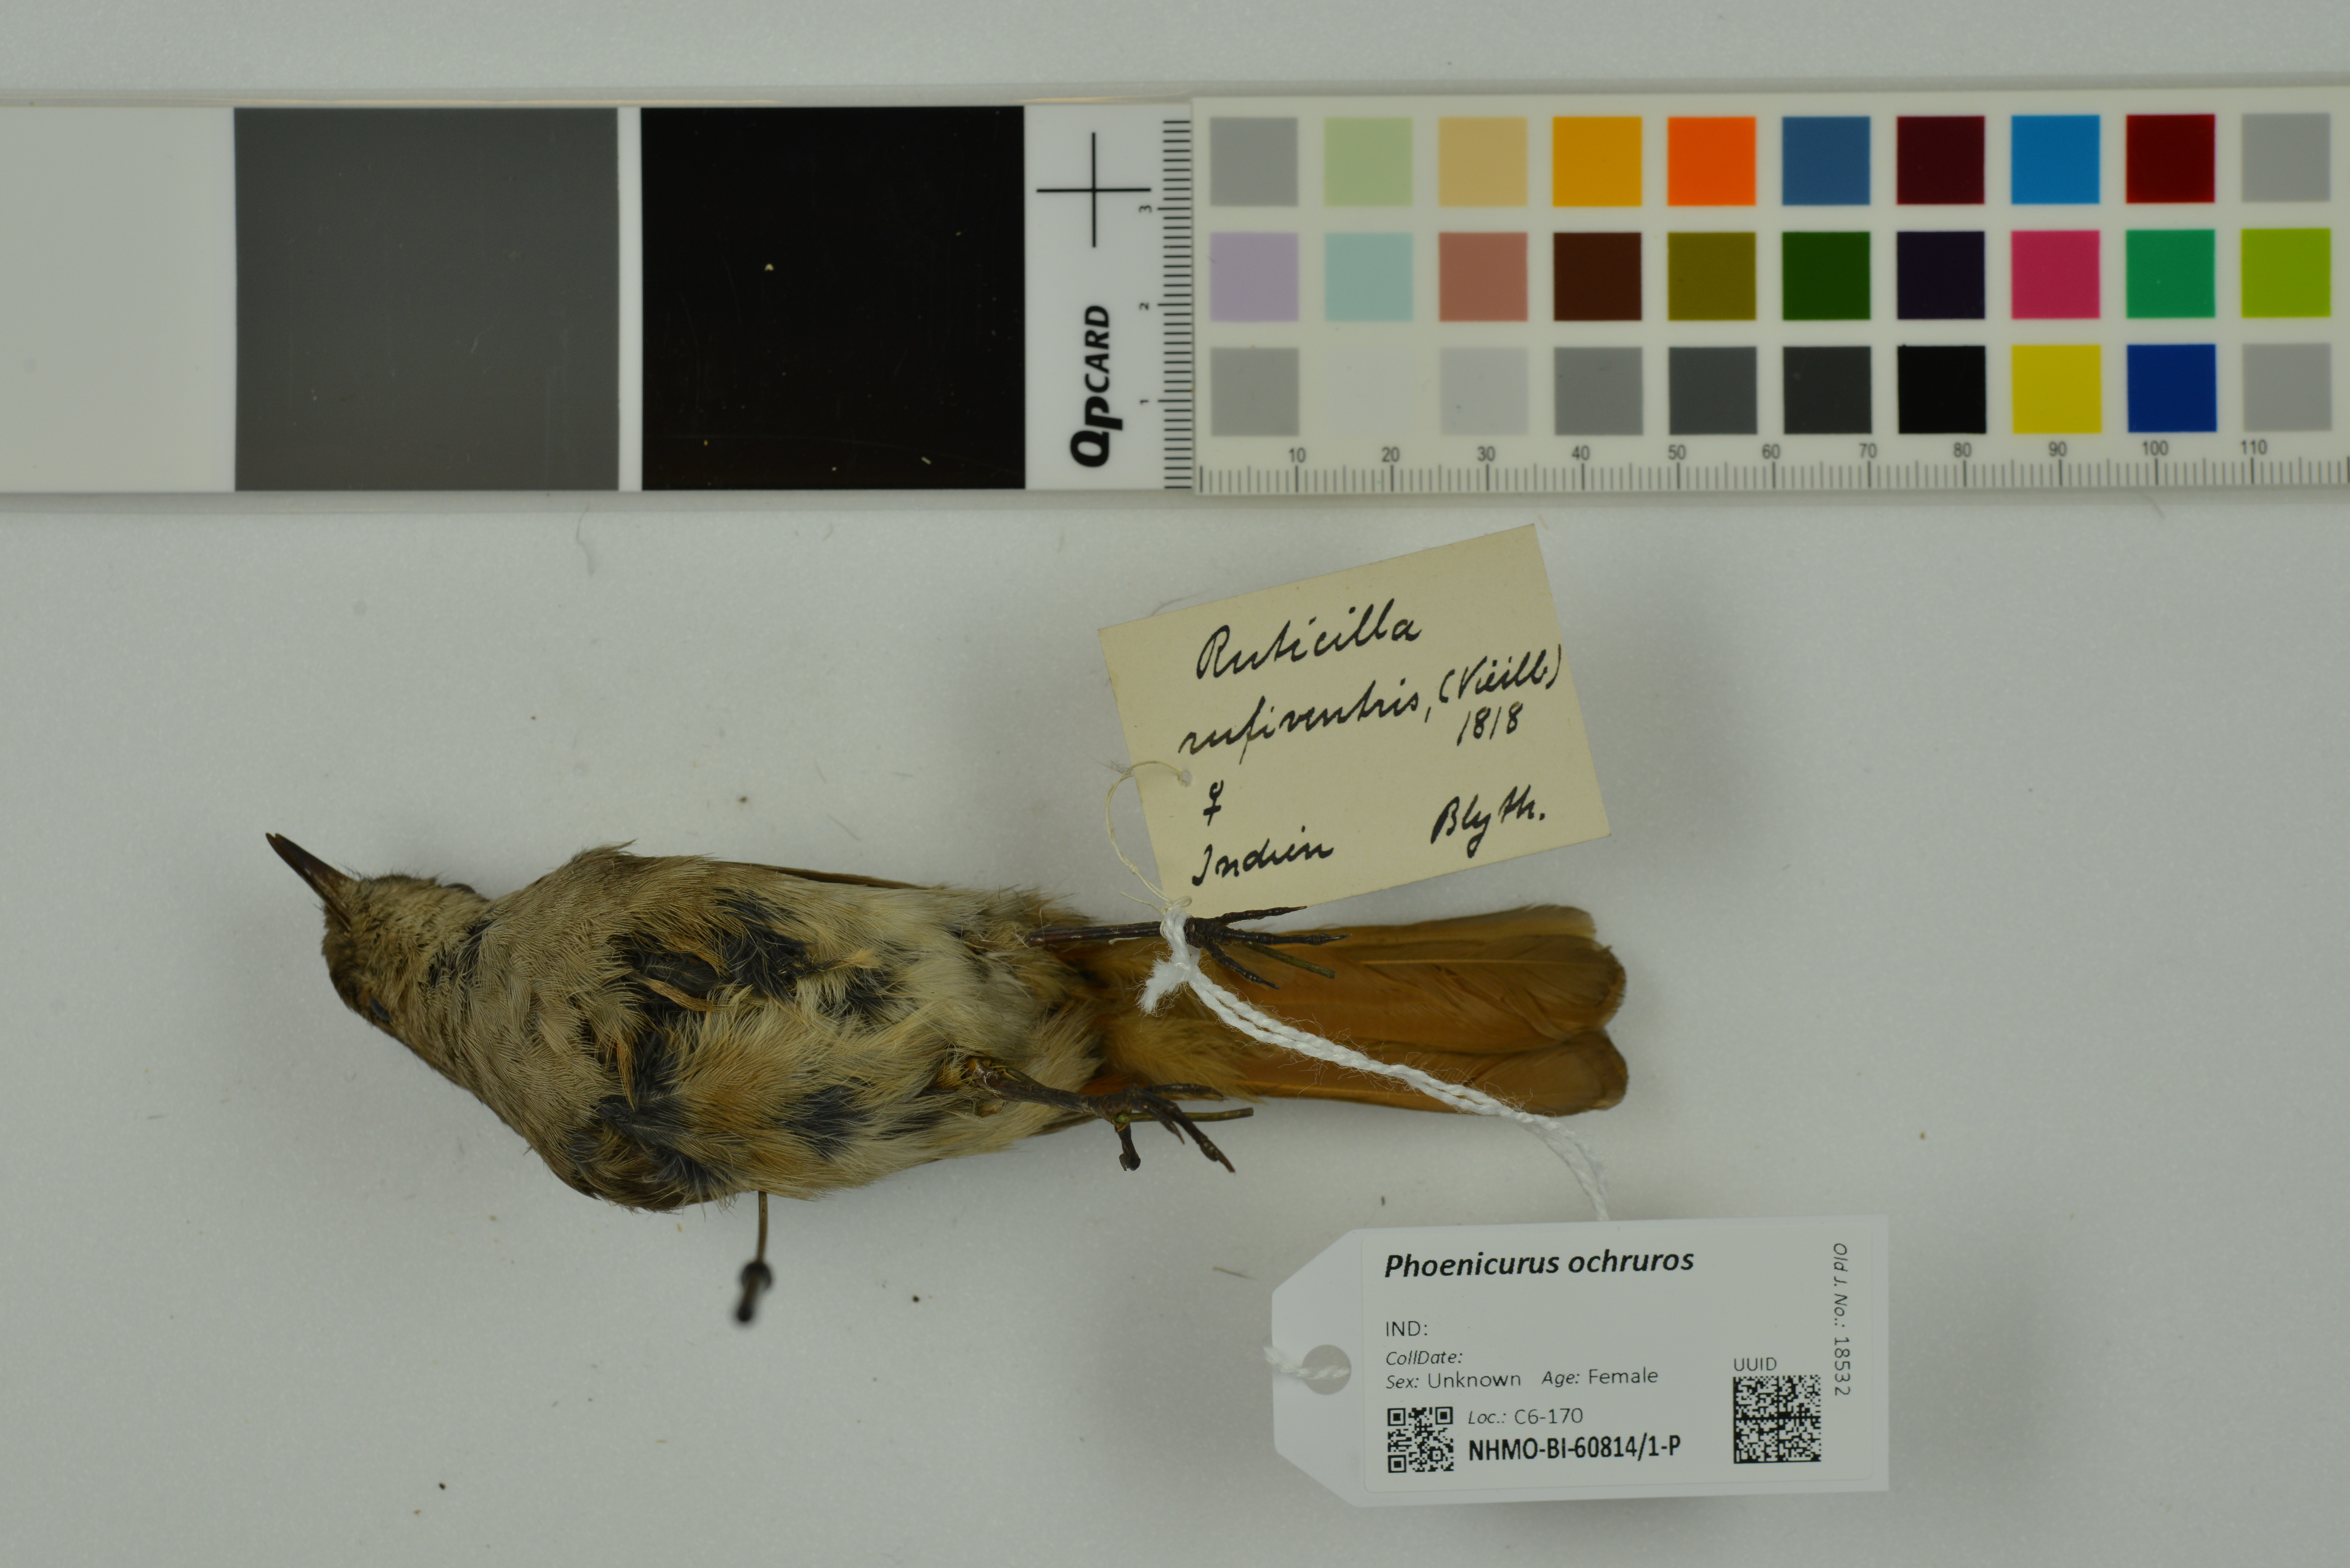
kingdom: Animalia
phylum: Chordata
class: Aves
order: Passeriformes
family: Muscicapidae
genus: Phoenicurus
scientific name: Phoenicurus ochruros
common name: Black redstart
